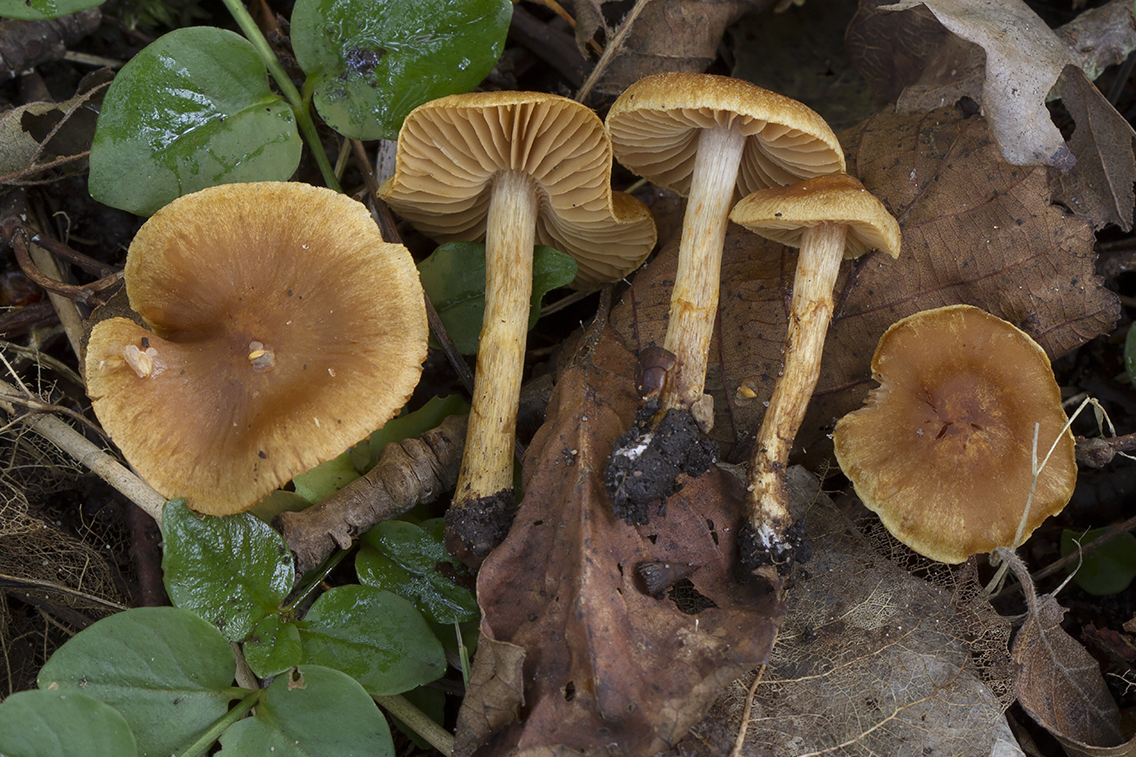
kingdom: Fungi
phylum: Basidiomycota
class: Agaricomycetes
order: Agaricales
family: Cortinariaceae
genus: Cortinarius
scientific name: Cortinarius paludosaniosus
